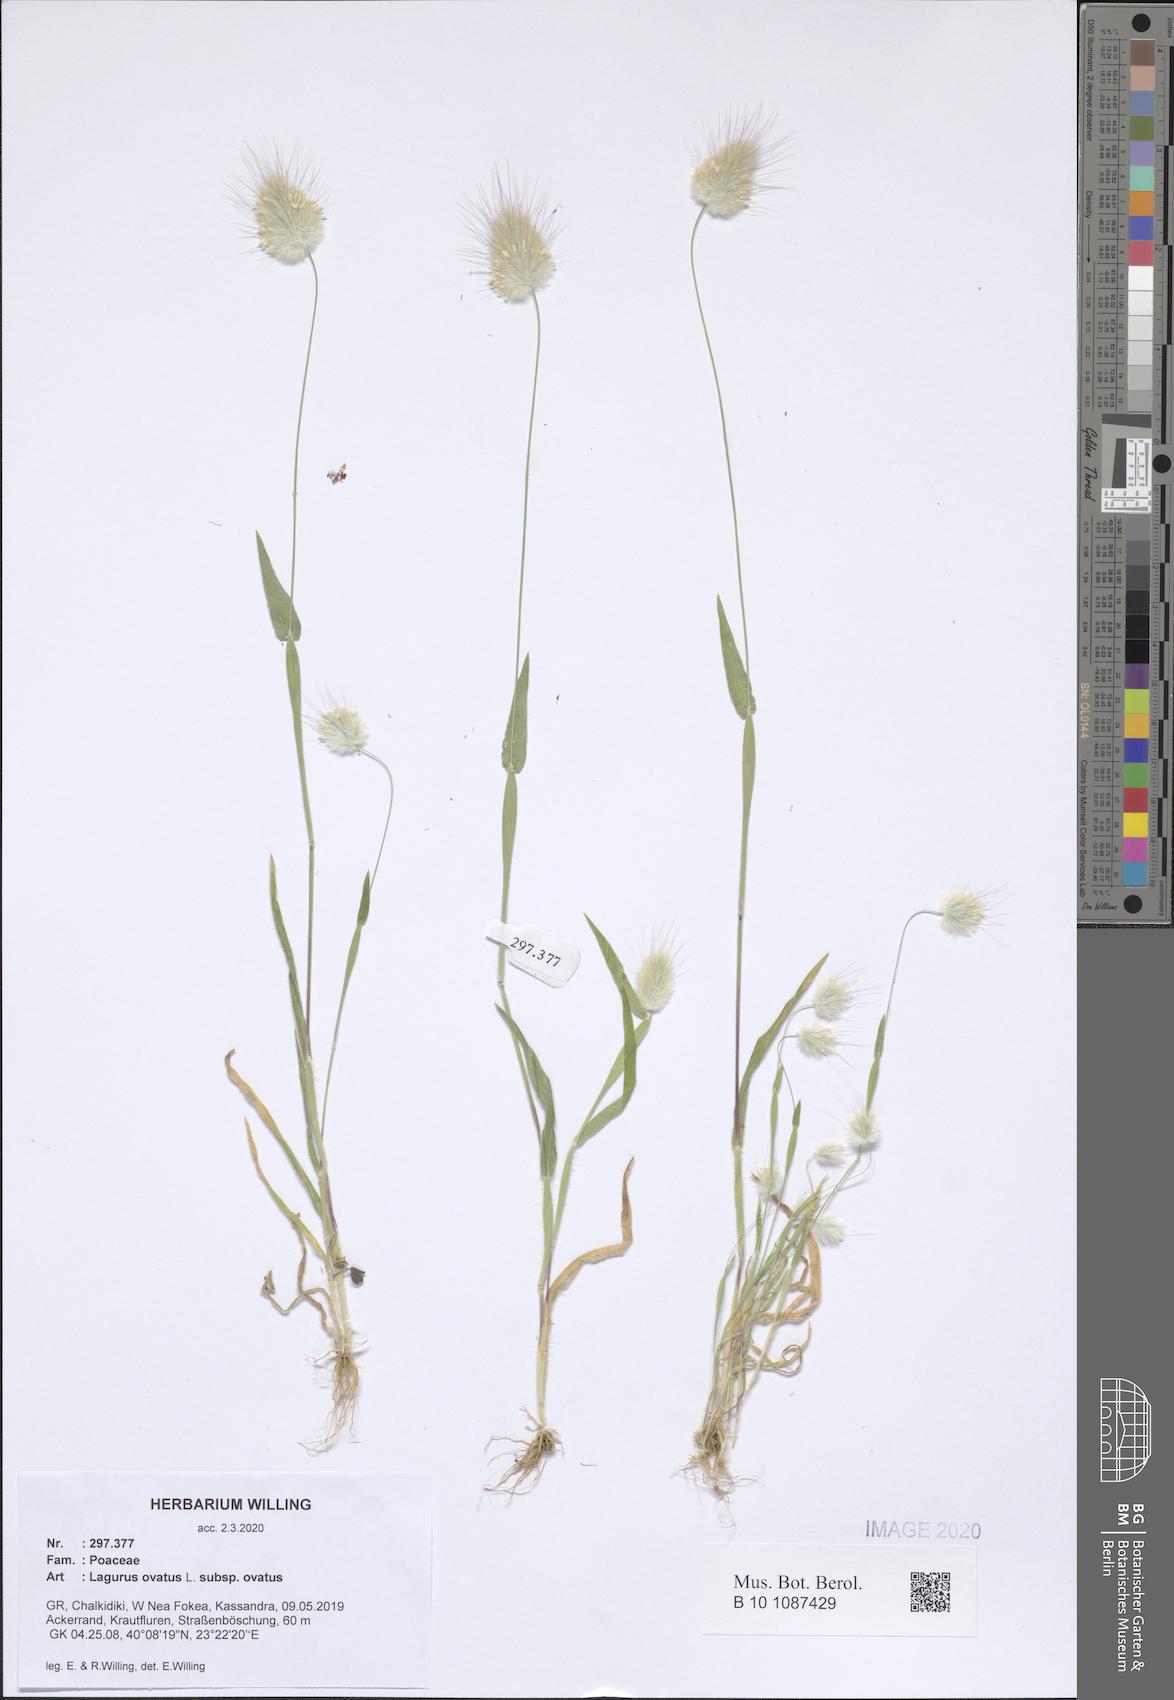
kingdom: Plantae
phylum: Tracheophyta
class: Liliopsida
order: Poales
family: Poaceae
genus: Lagurus
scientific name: Lagurus ovatus
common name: Hare's-tail
